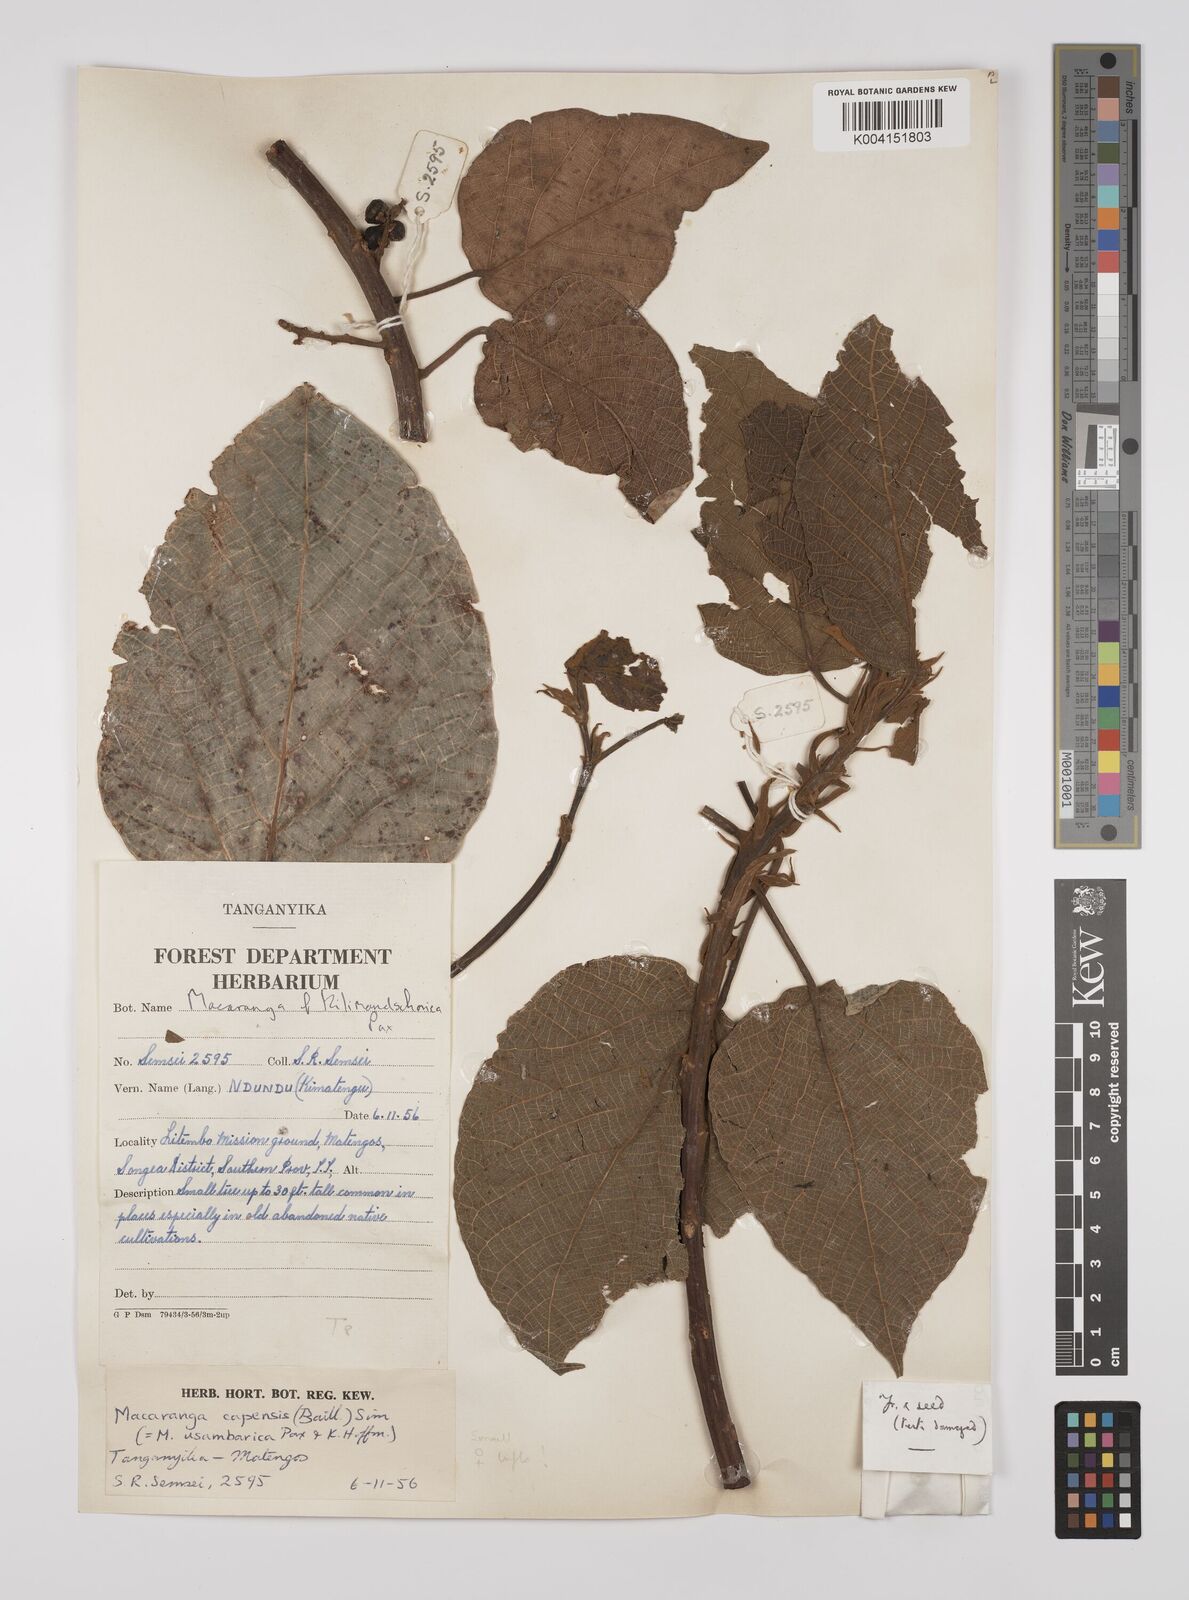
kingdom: Plantae
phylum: Tracheophyta
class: Magnoliopsida
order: Malpighiales
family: Euphorbiaceae
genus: Macaranga
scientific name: Macaranga capensis
